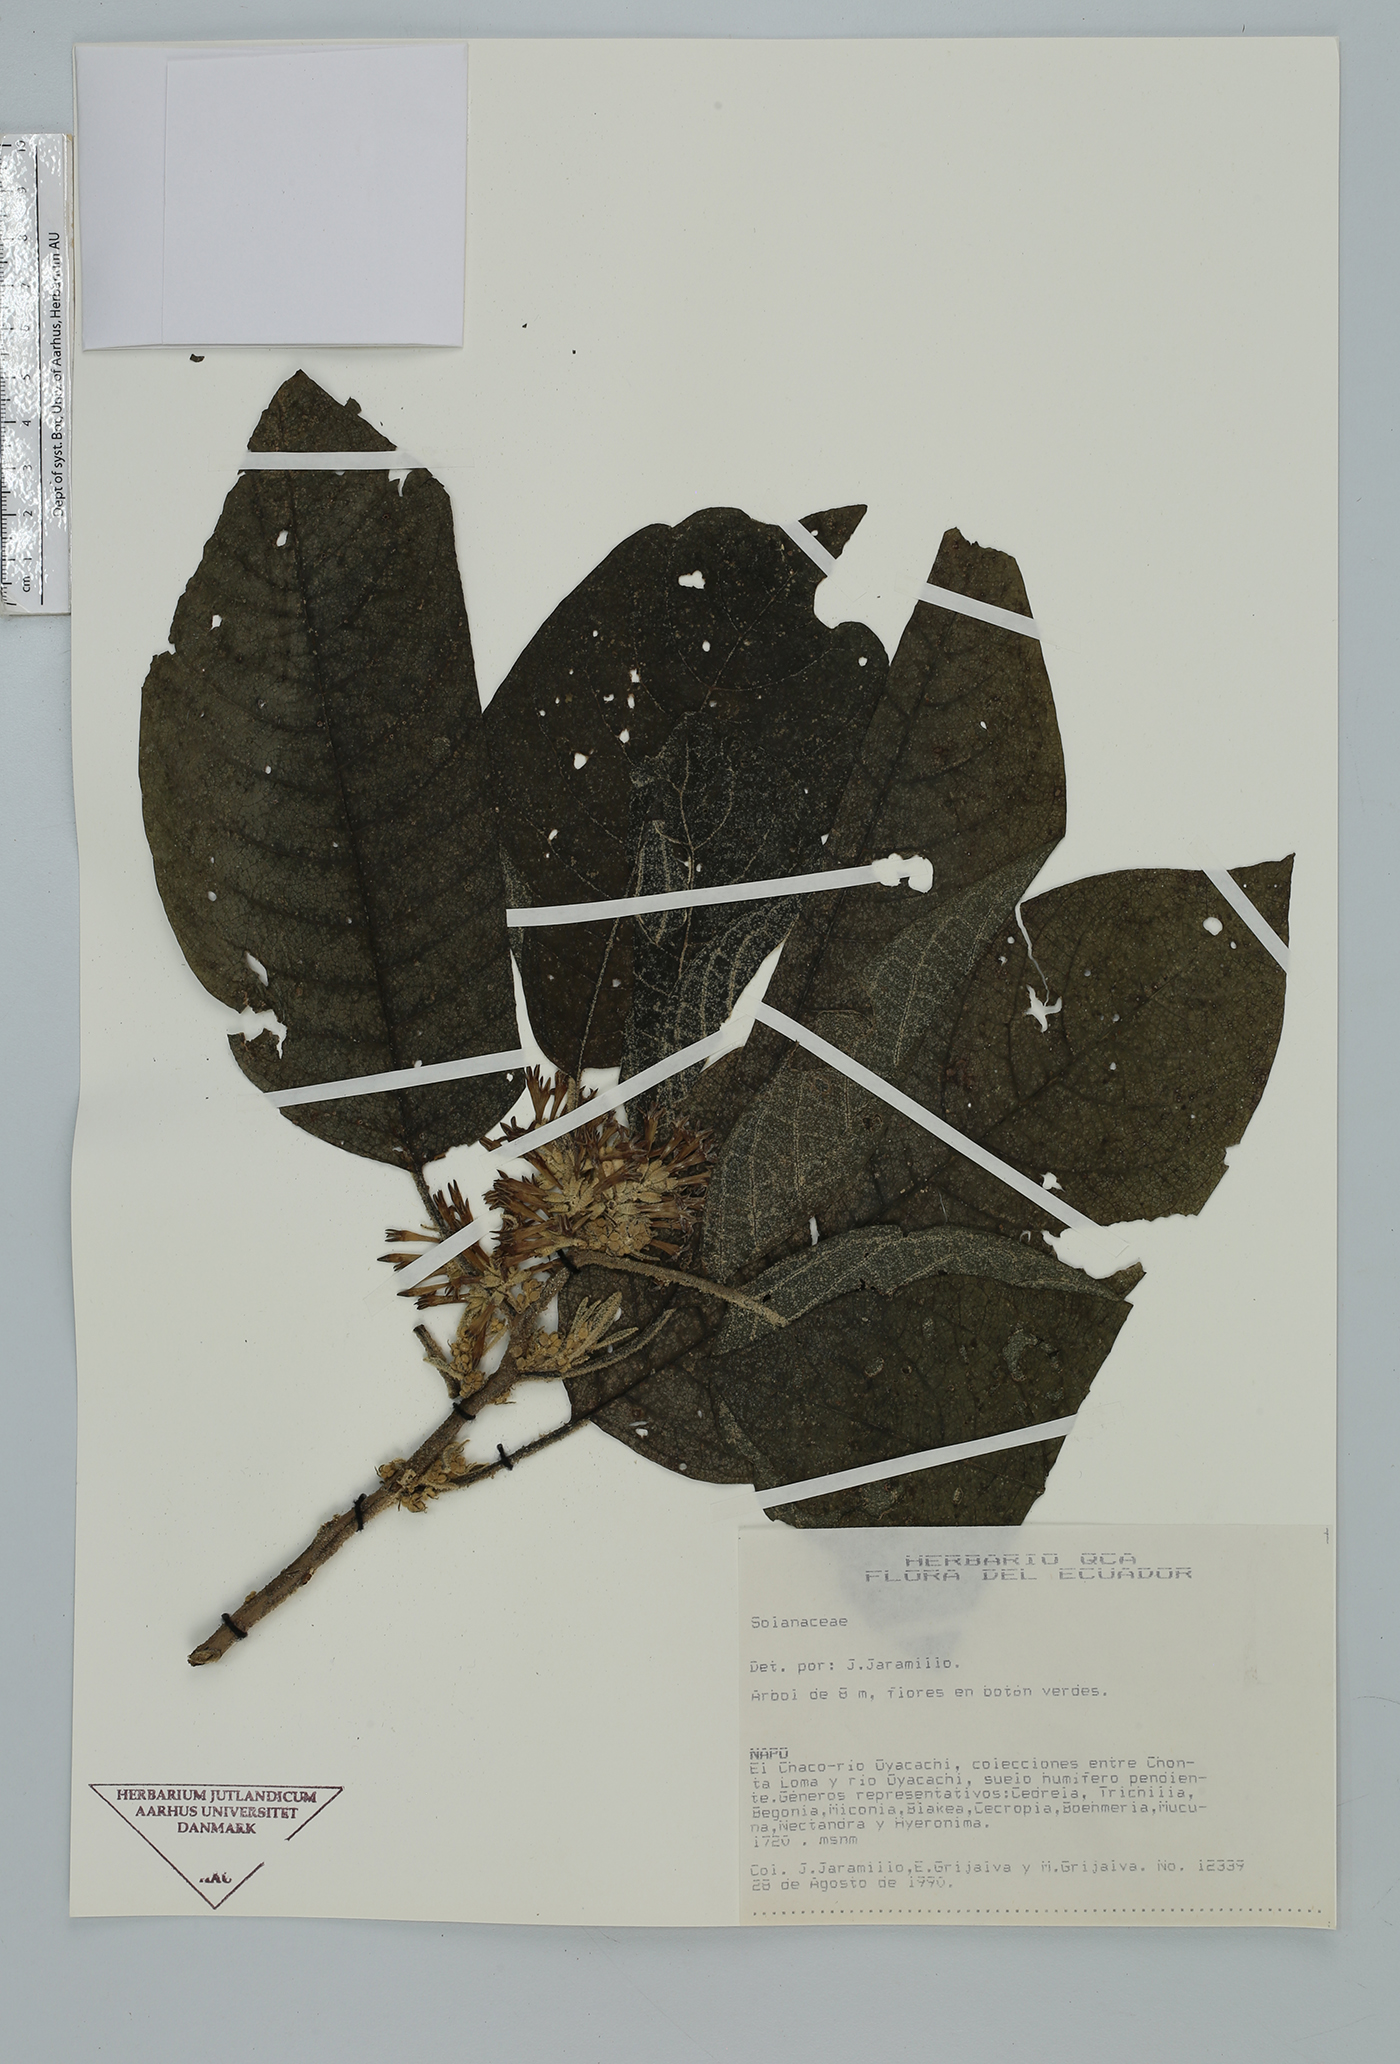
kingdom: Plantae
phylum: Tracheophyta
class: Magnoliopsida
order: Solanales
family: Solanaceae
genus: Cestrum
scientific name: Cestrum
